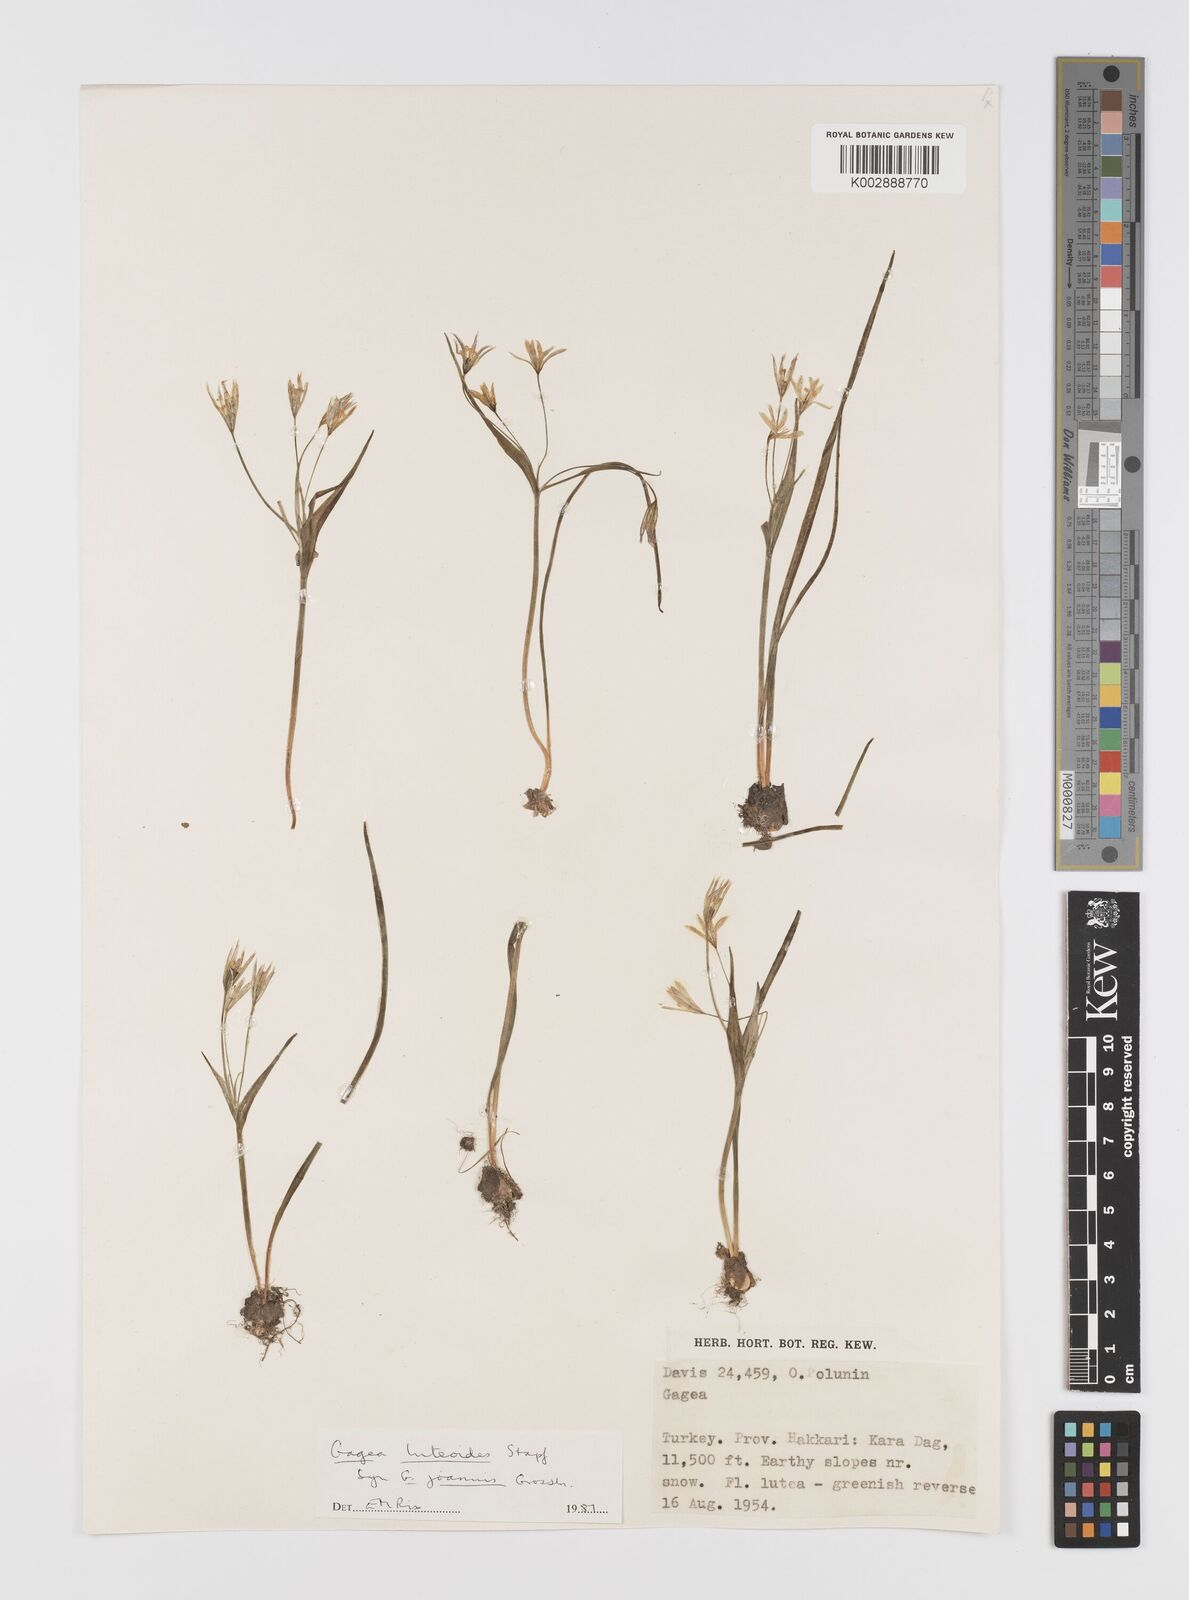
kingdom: Plantae
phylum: Tracheophyta
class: Liliopsida
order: Liliales
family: Liliaceae
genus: Gagea
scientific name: Gagea luteoides
